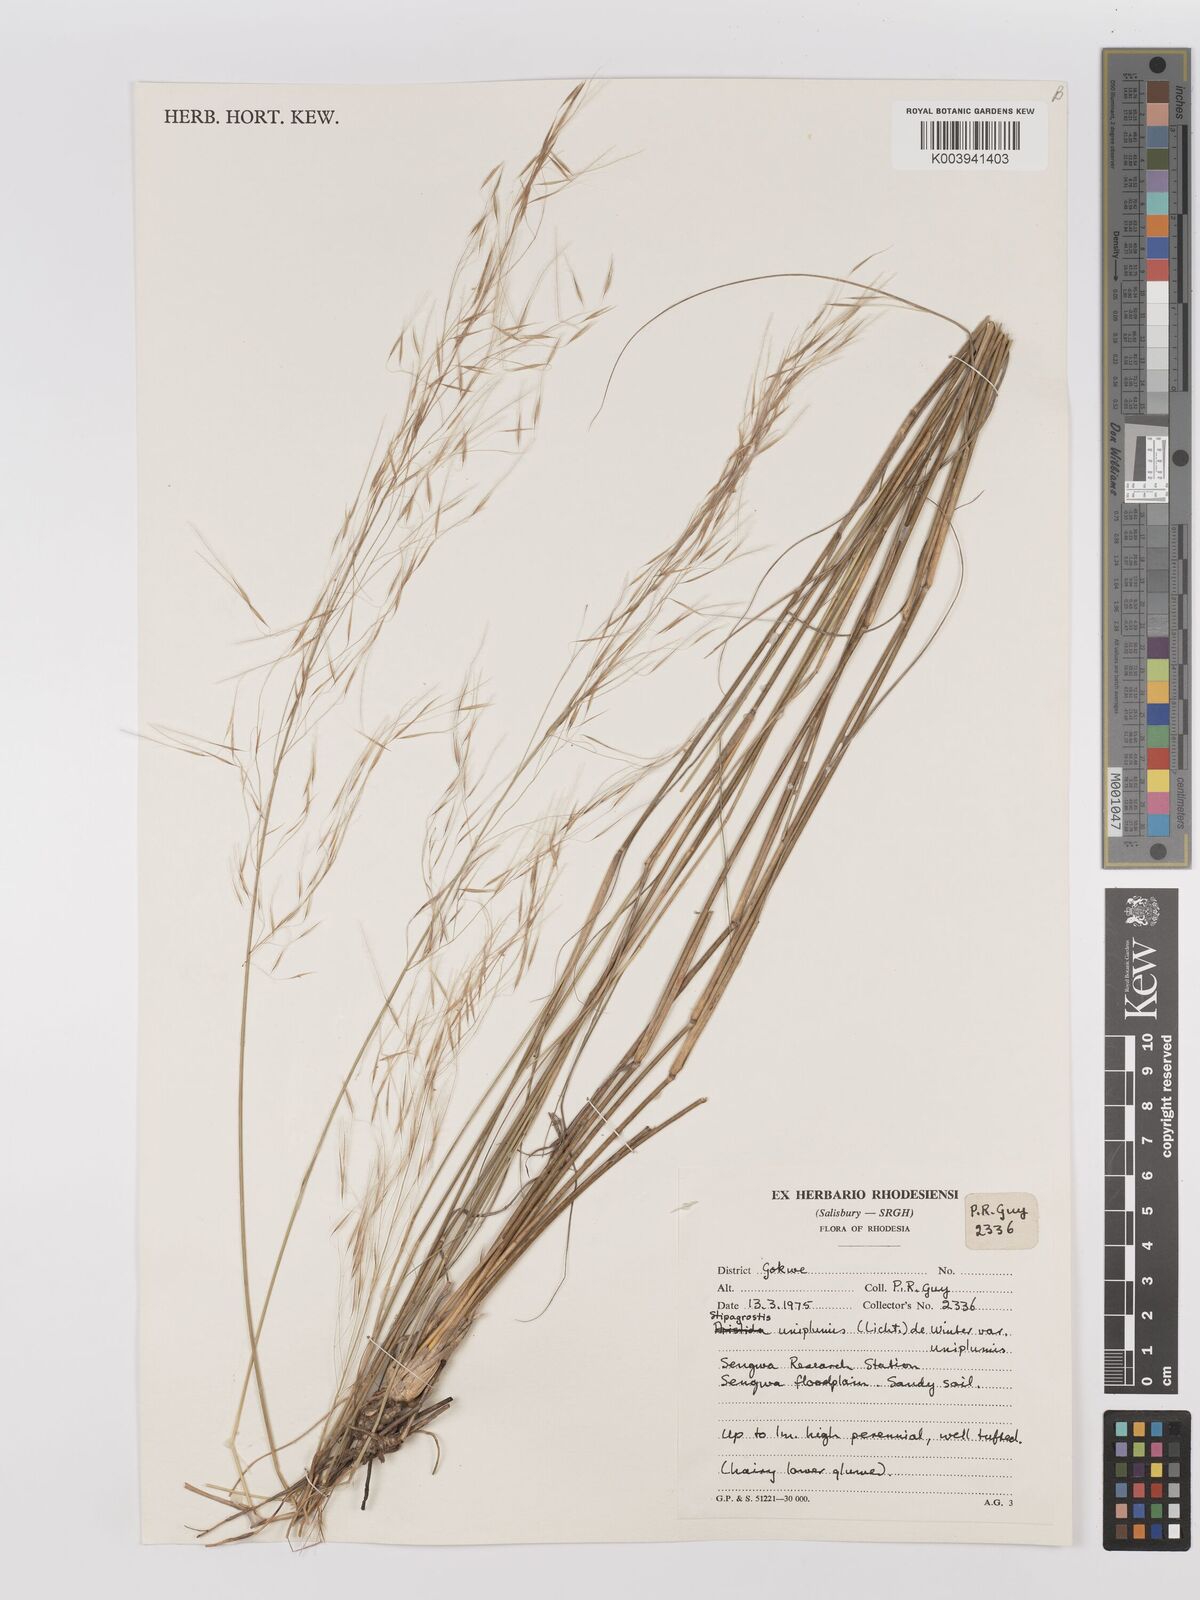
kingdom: Plantae
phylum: Tracheophyta
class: Liliopsida
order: Poales
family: Poaceae
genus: Stipagrostis
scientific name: Stipagrostis uniplumis
